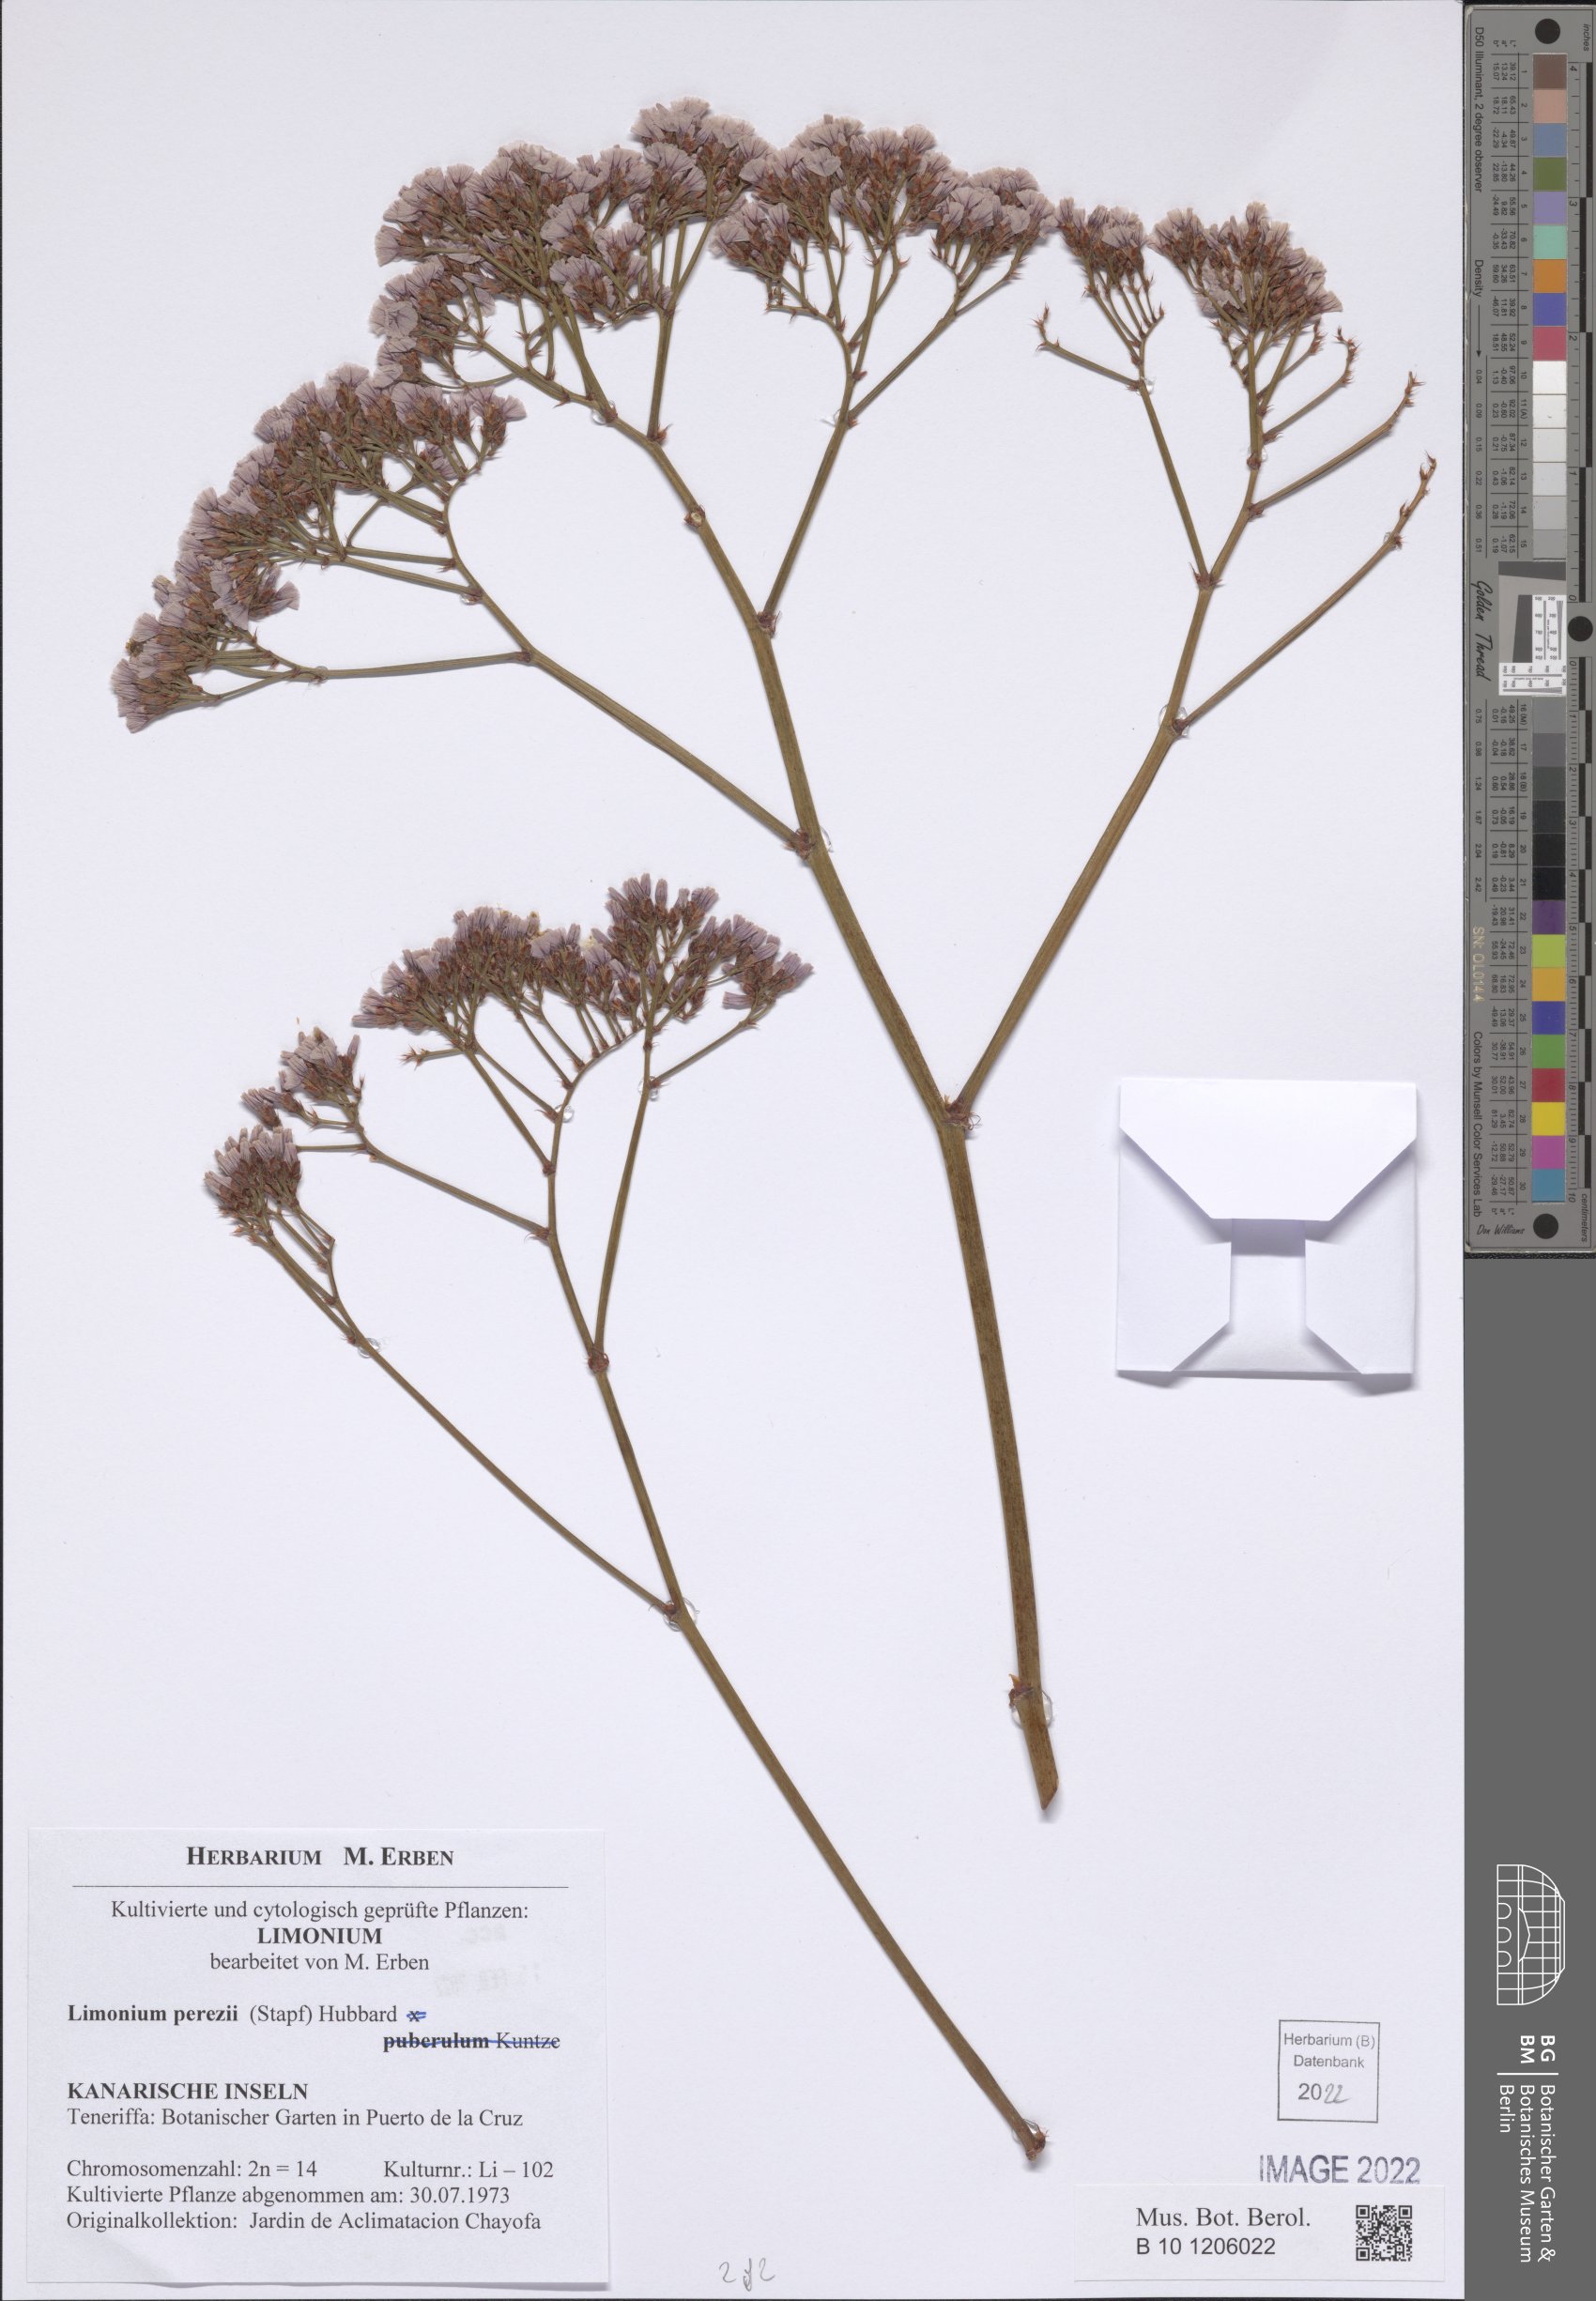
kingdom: Plantae
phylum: Tracheophyta
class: Magnoliopsida
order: Caryophyllales
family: Plumbaginaceae
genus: Limonium
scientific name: Limonium perezii
